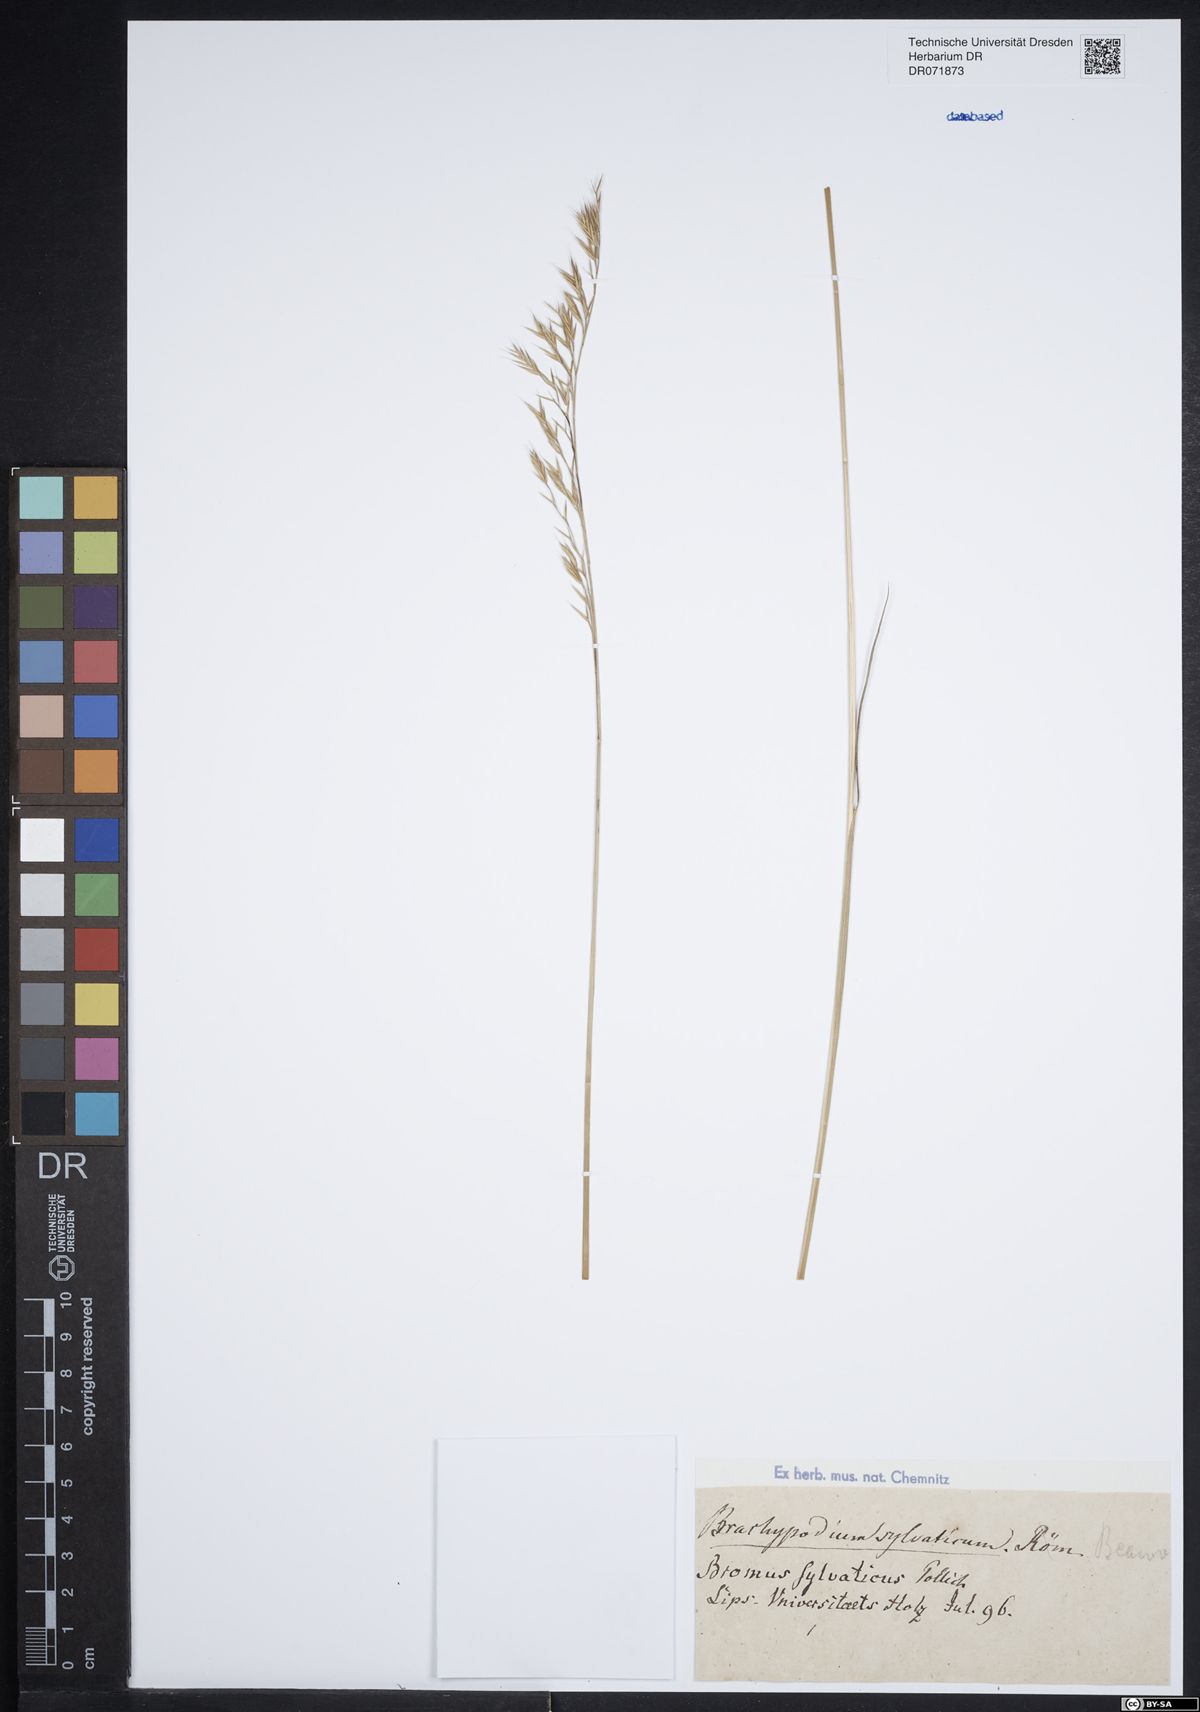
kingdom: Plantae
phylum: Tracheophyta
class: Liliopsida
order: Poales
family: Poaceae
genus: Brachypodium
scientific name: Brachypodium sylvaticum
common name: False-brome
